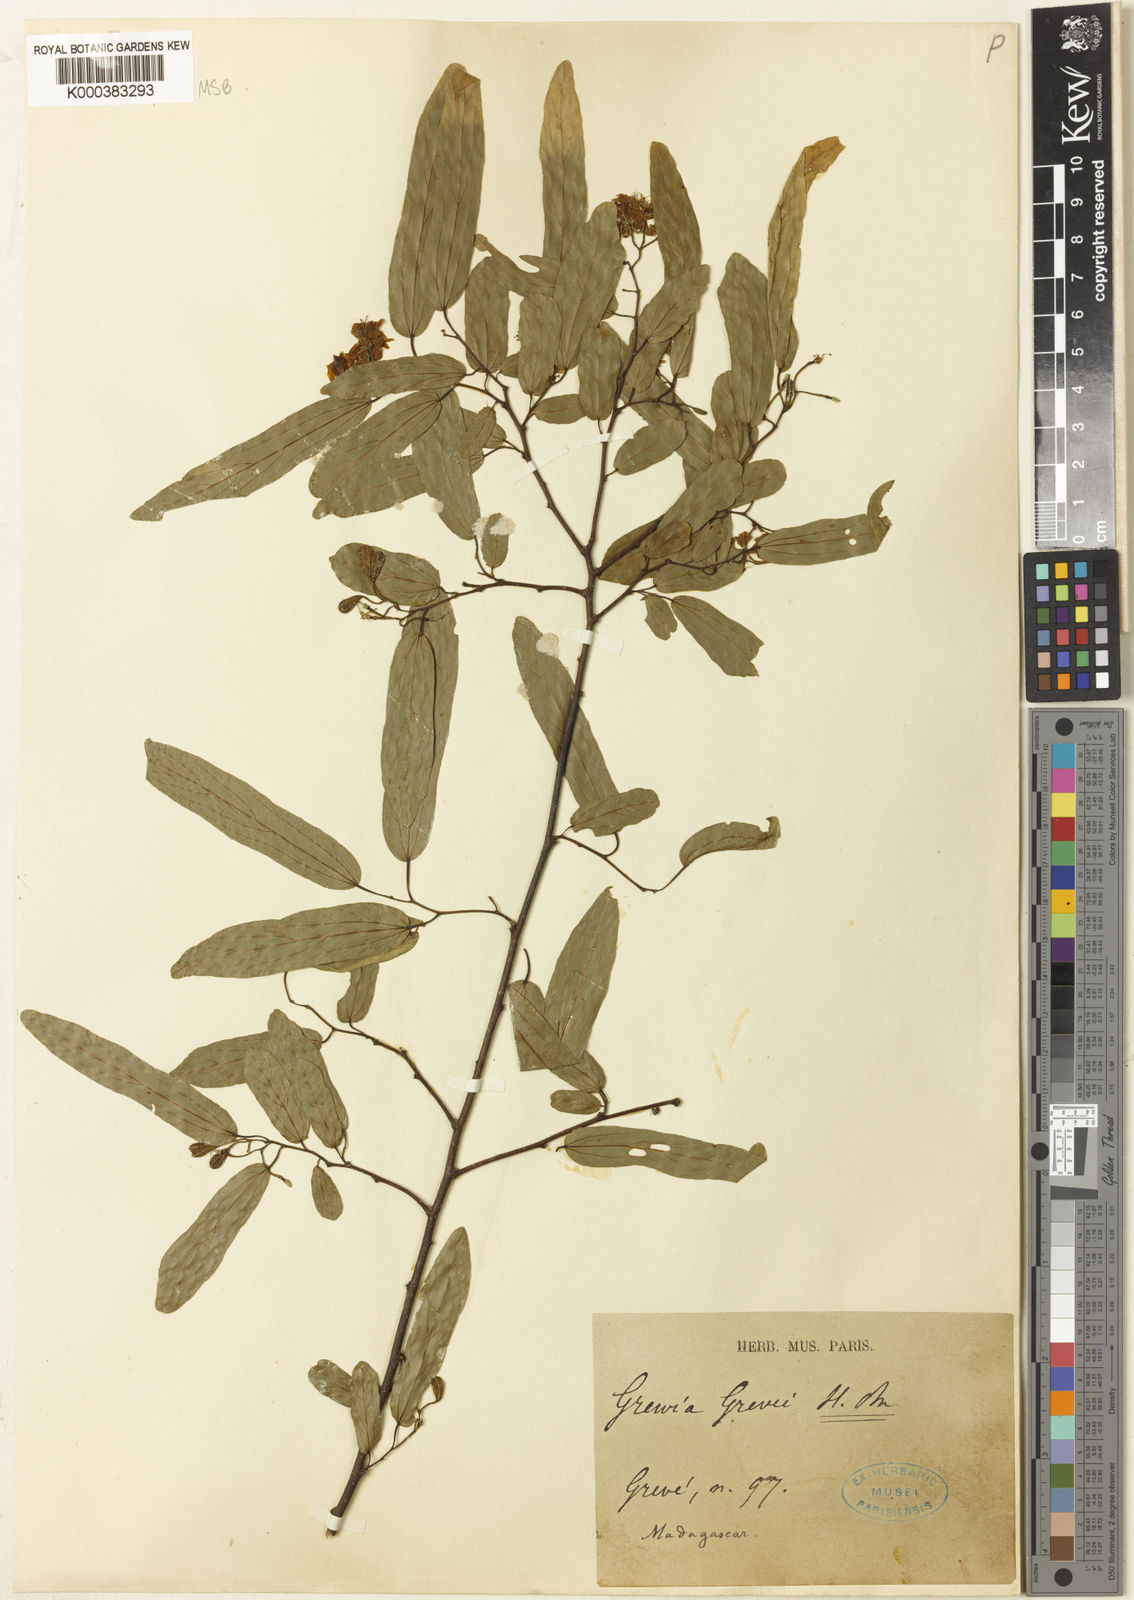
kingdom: Plantae
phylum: Tracheophyta
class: Magnoliopsida
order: Malvales
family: Malvaceae
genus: Grewia
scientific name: Grewia grevei
